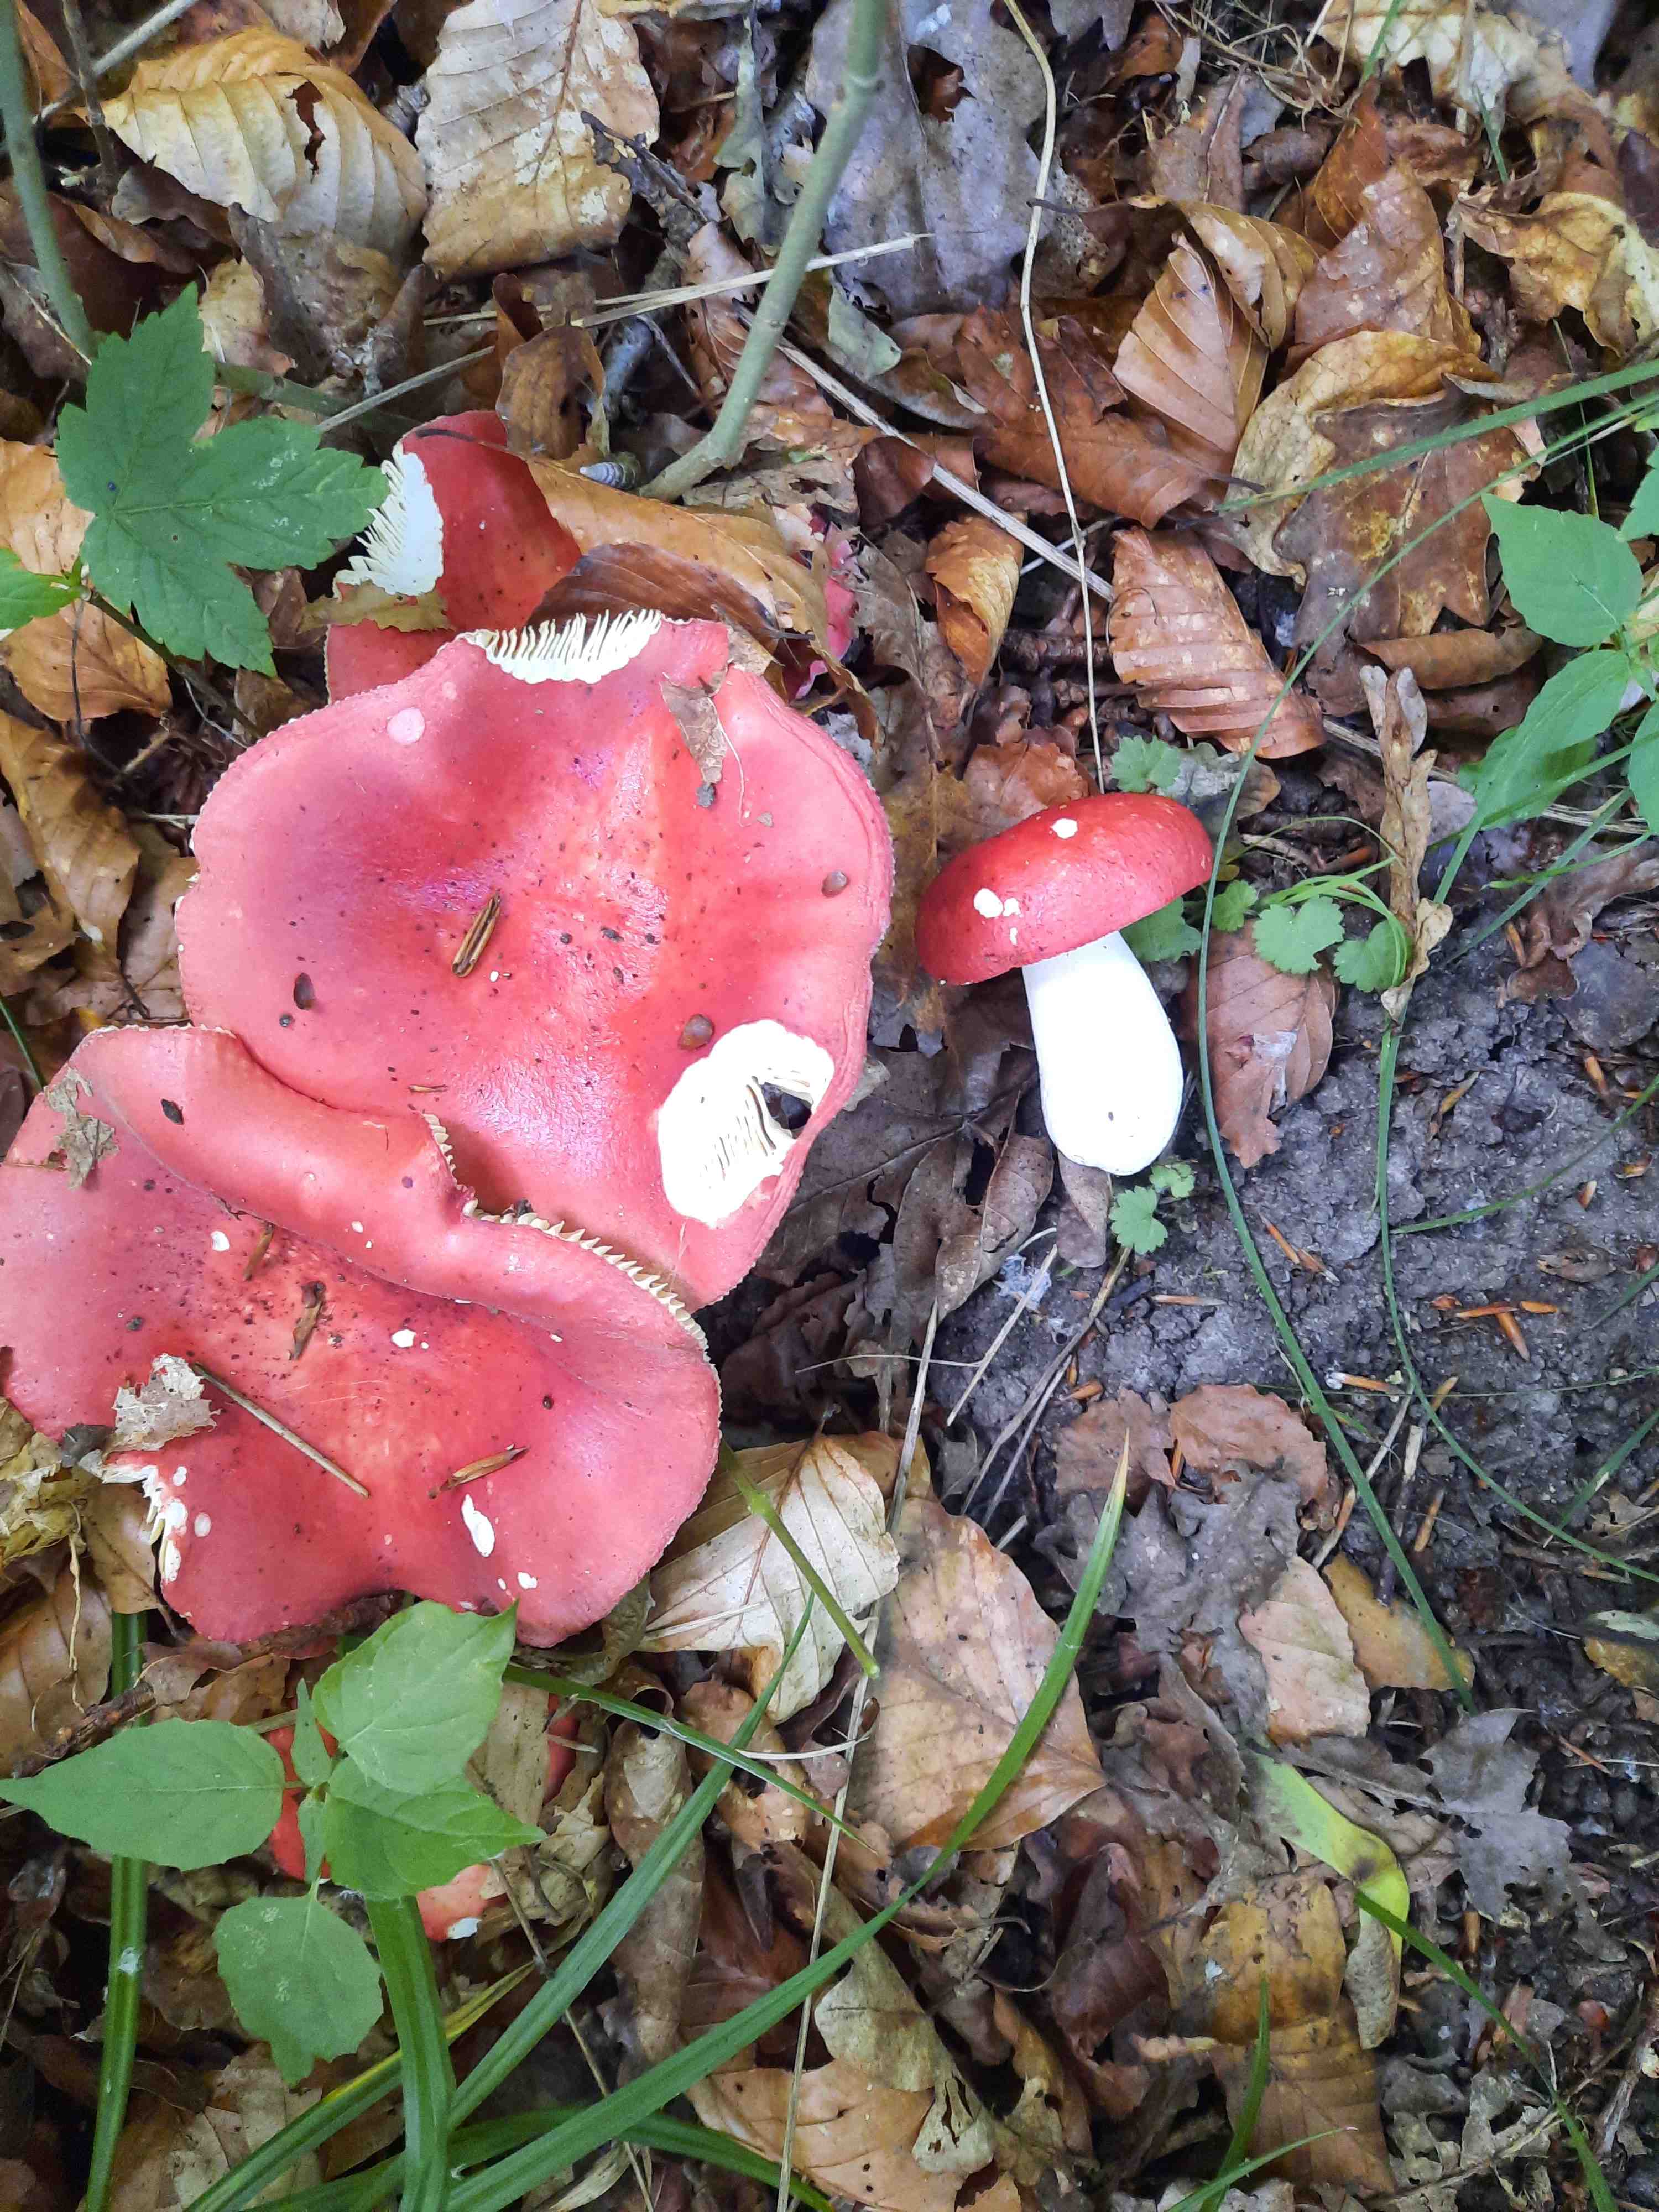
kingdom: Fungi
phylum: Basidiomycota
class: Agaricomycetes
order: Russulales
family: Russulaceae
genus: Russula
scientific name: Russula
